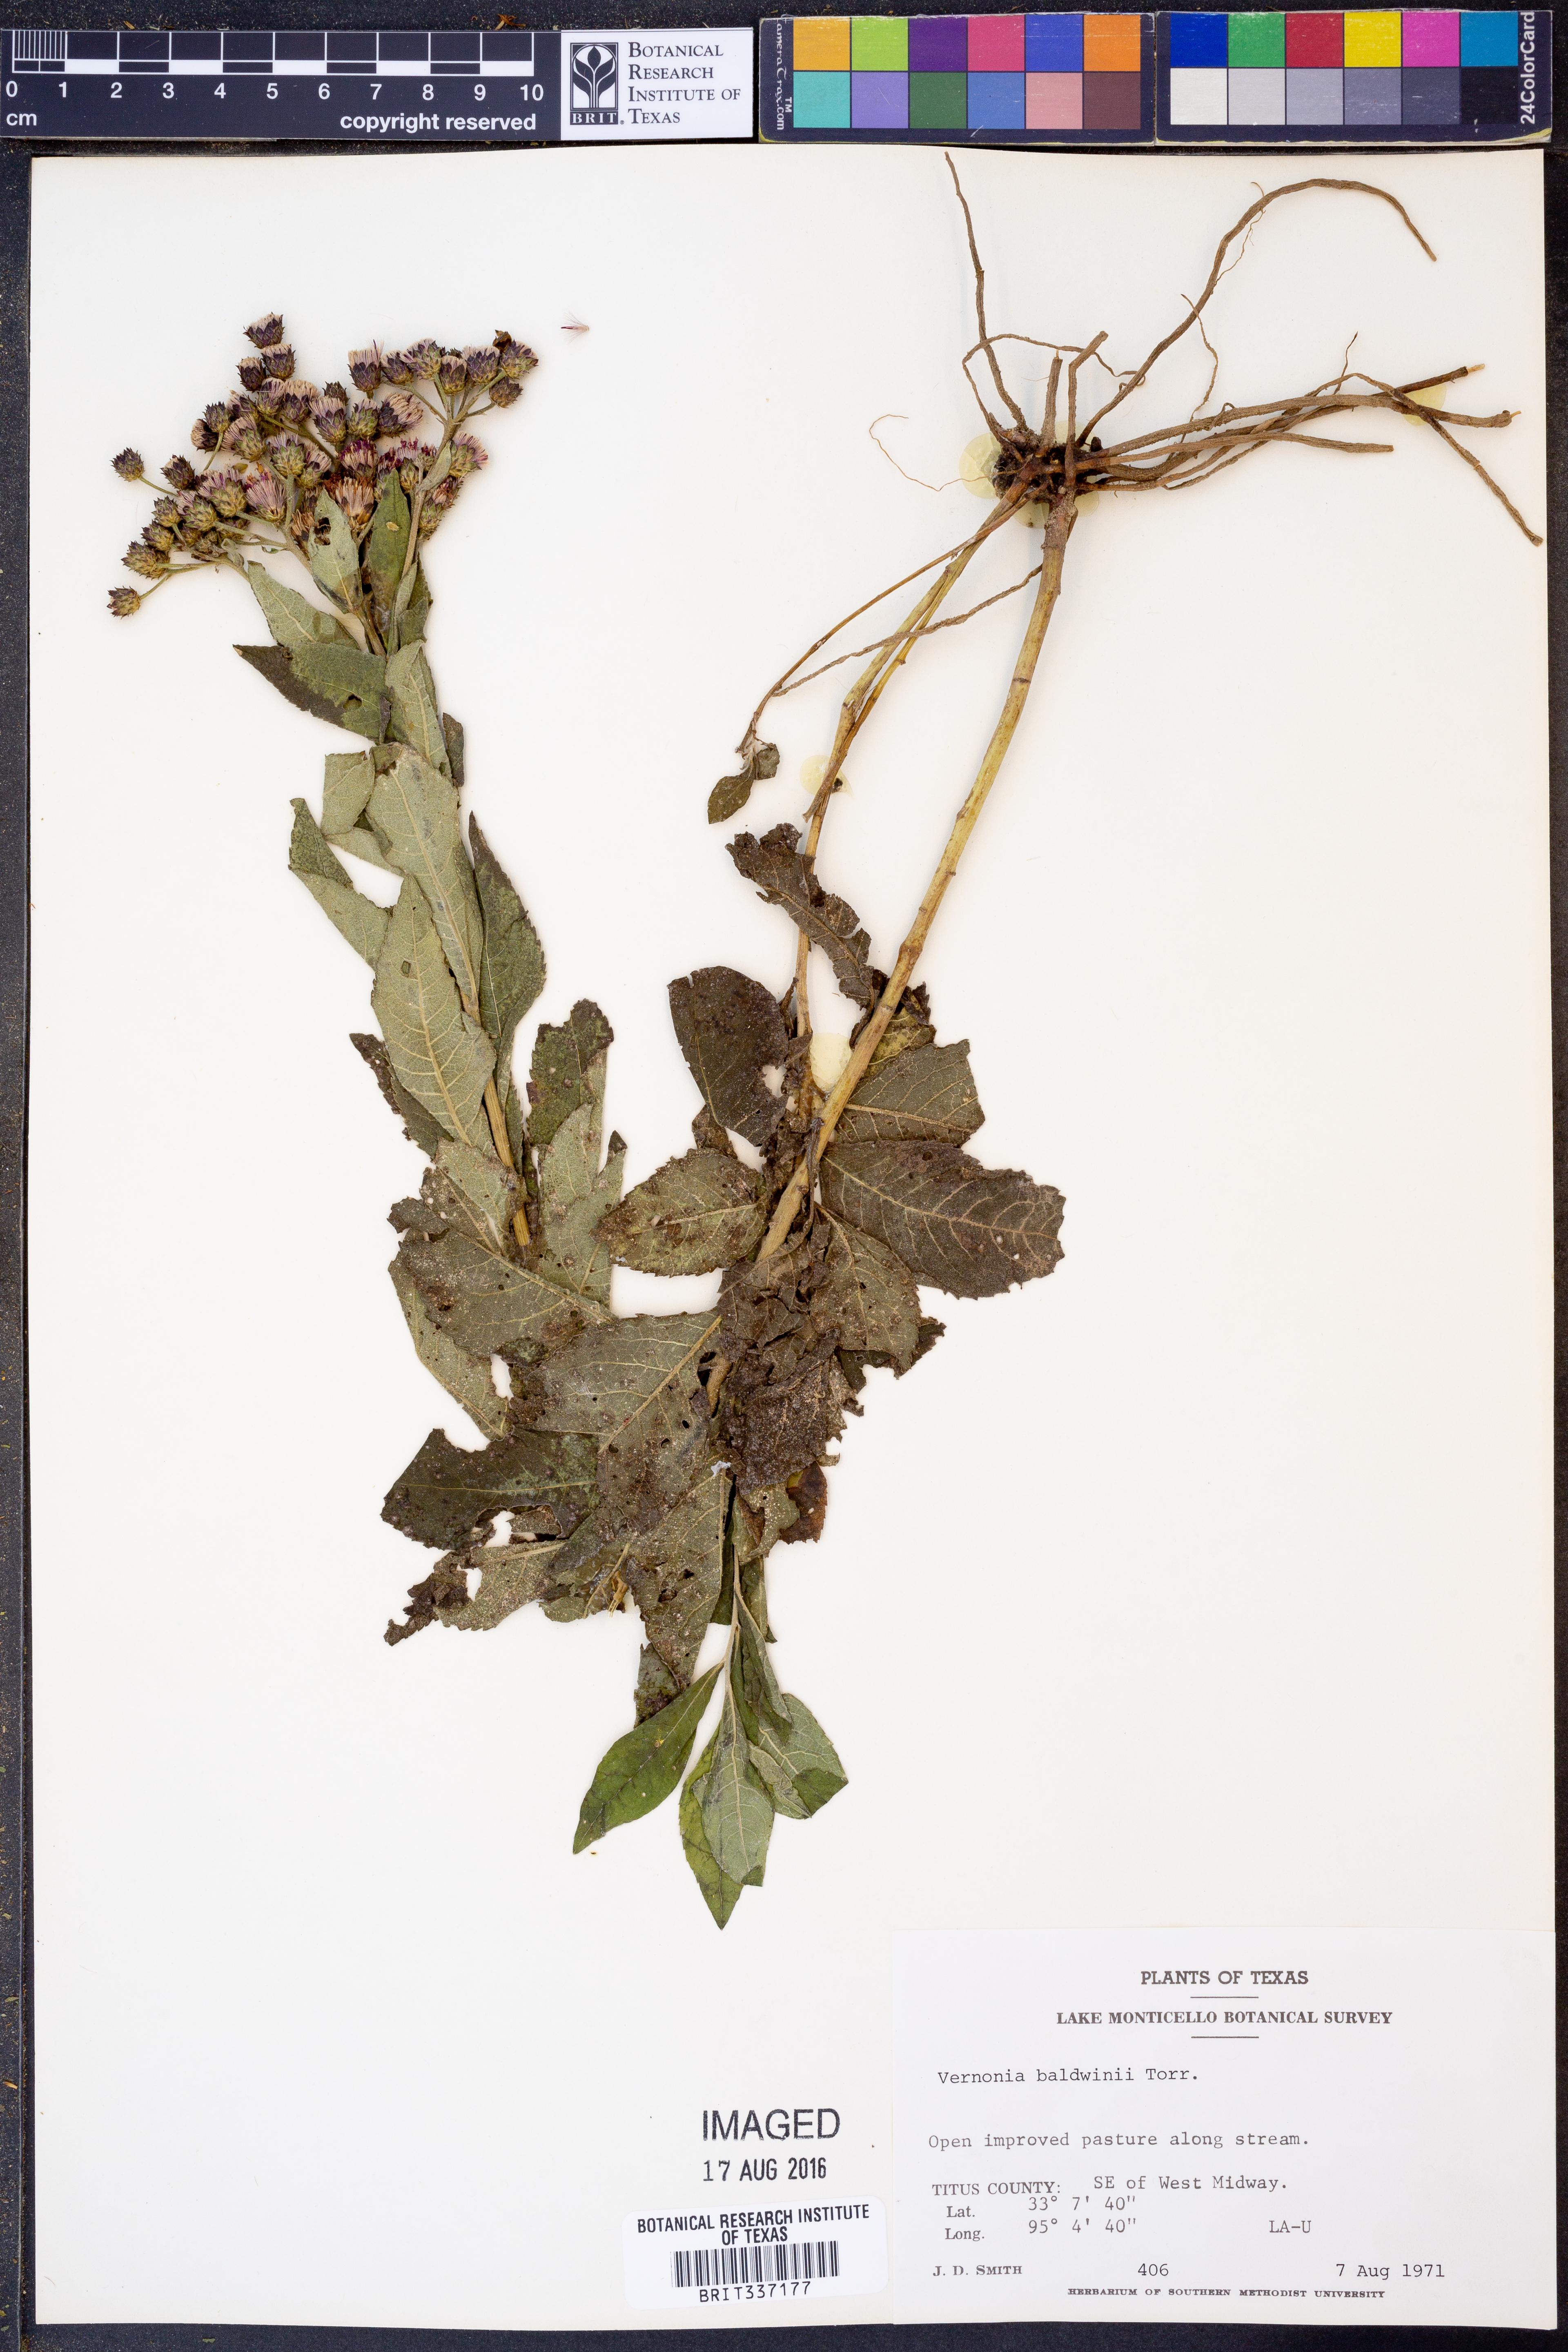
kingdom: Plantae
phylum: Tracheophyta
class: Magnoliopsida
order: Asterales
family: Asteraceae
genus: Vernonia
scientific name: Vernonia baldwinii
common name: Western ironweed
